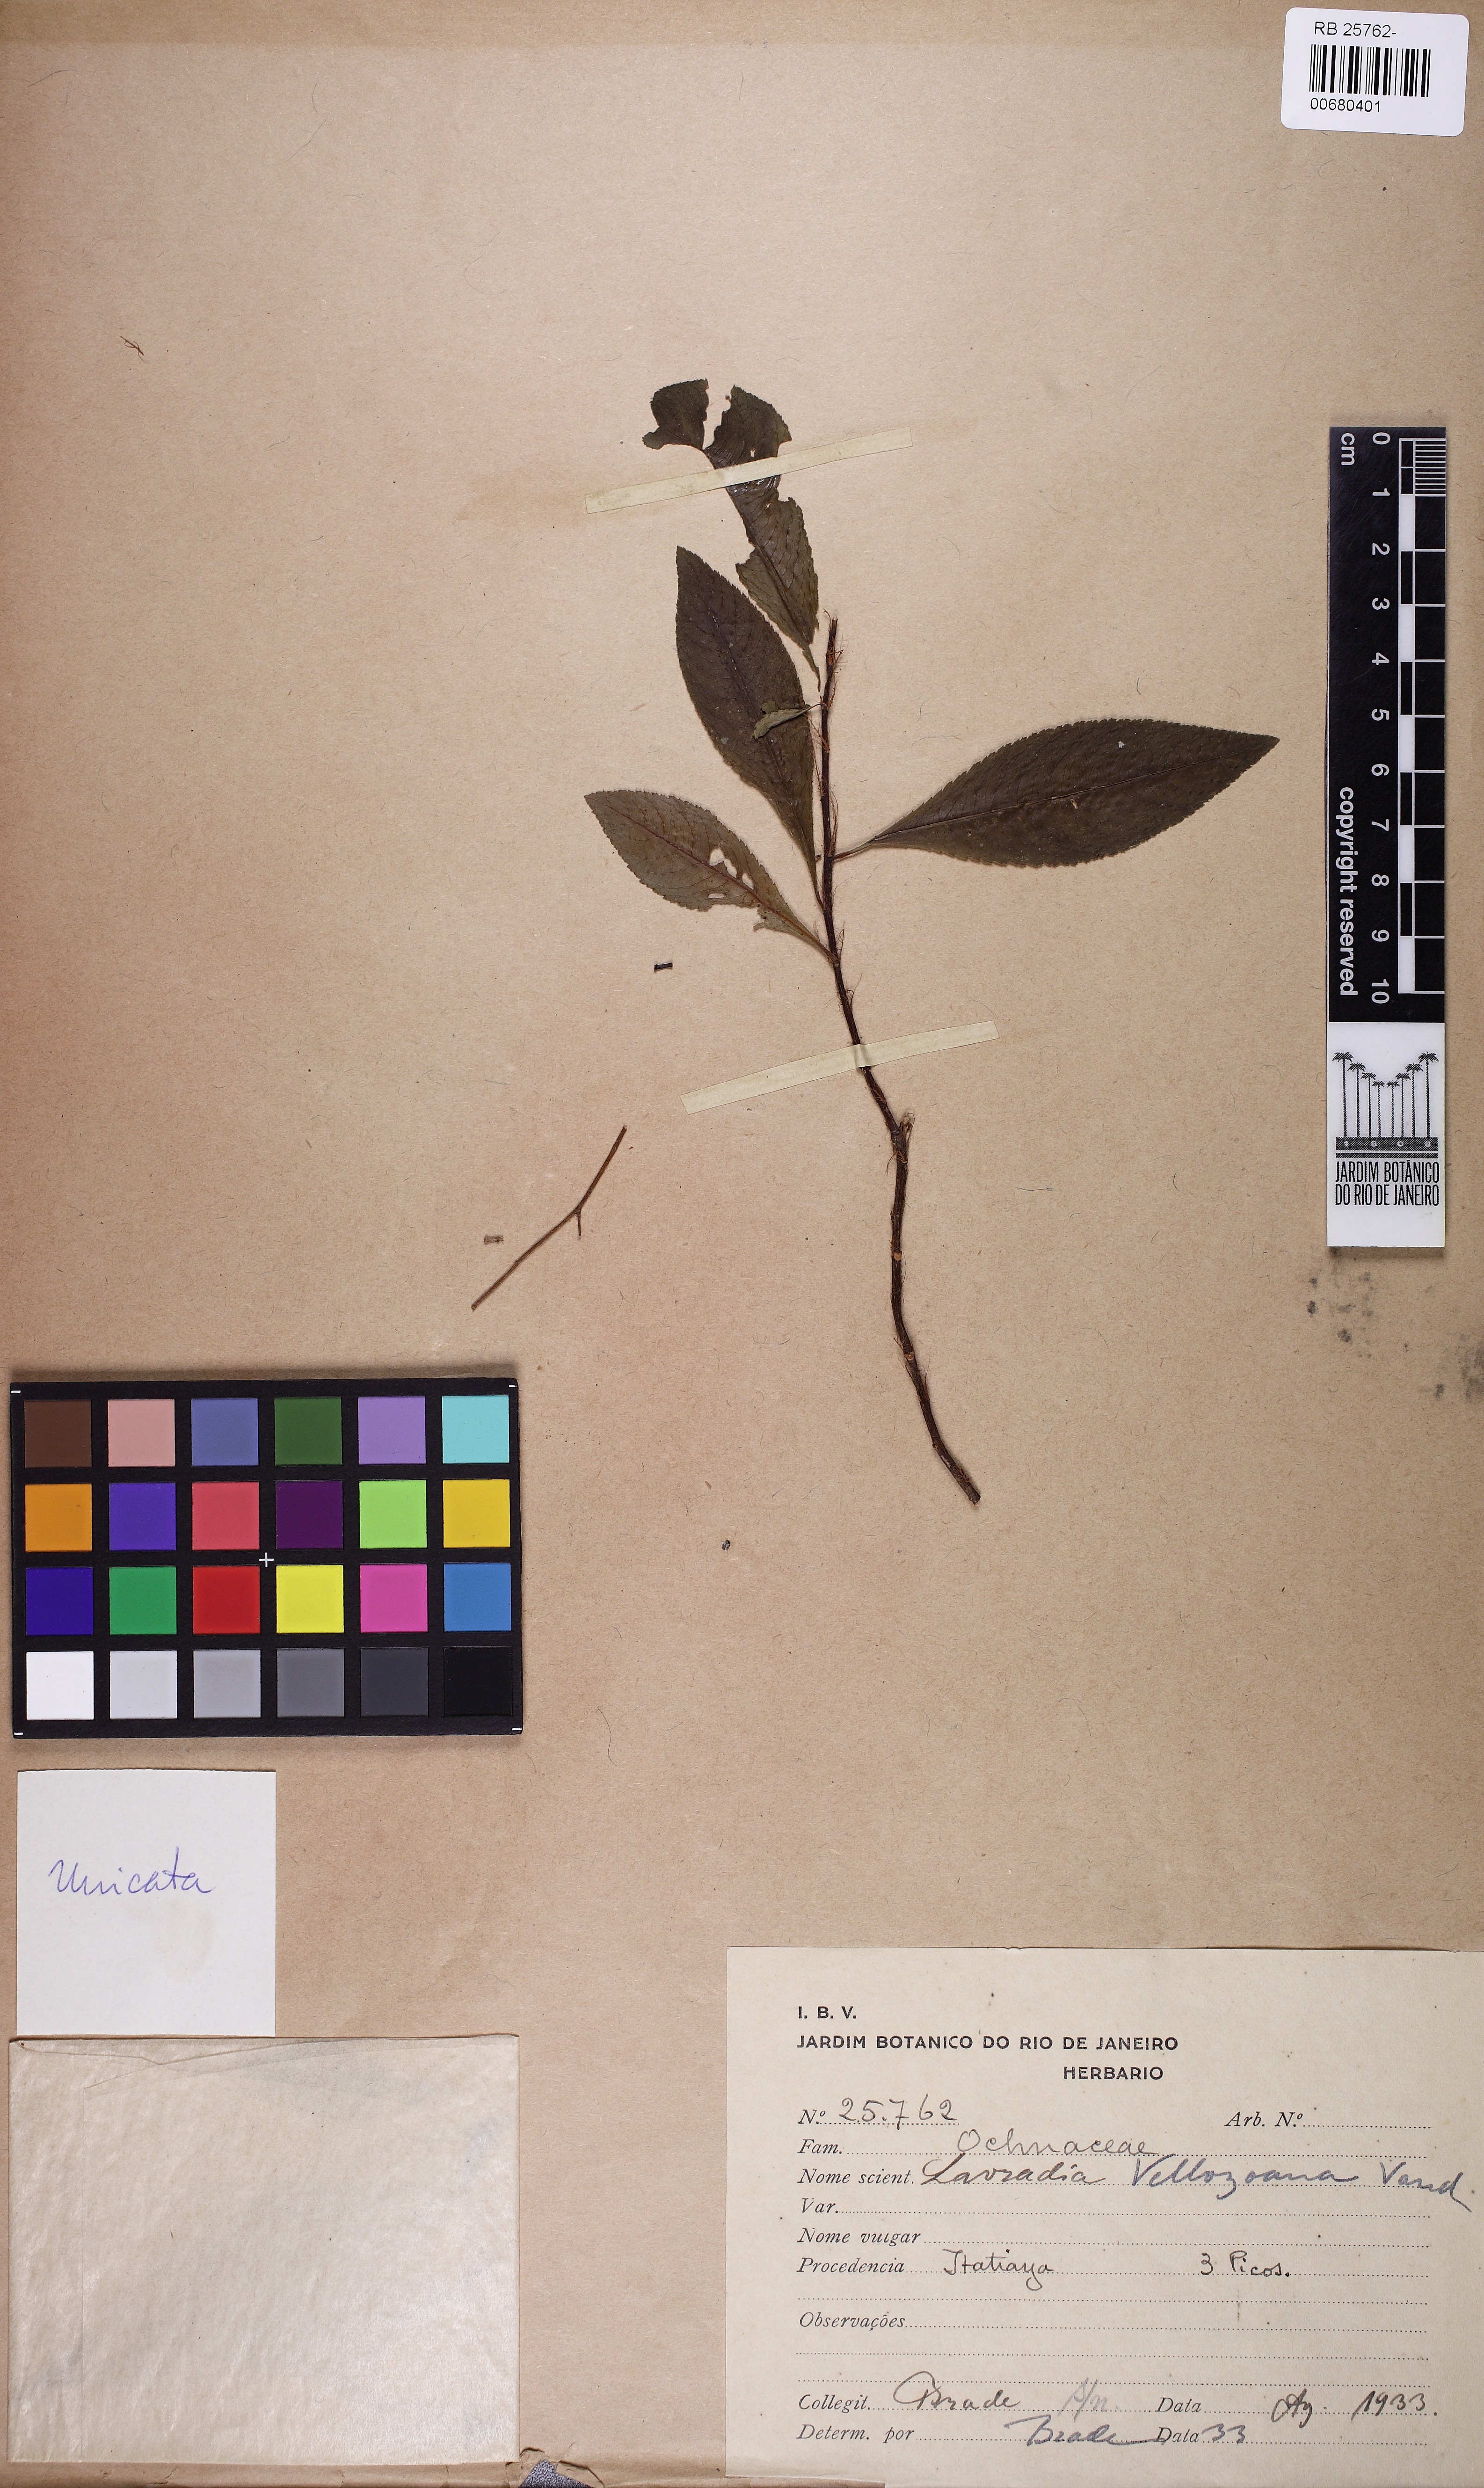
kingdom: Plantae
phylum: Tracheophyta
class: Magnoliopsida
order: Malpighiales
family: Ochnaceae
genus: Sauvagesia
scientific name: Sauvagesia vellozii
